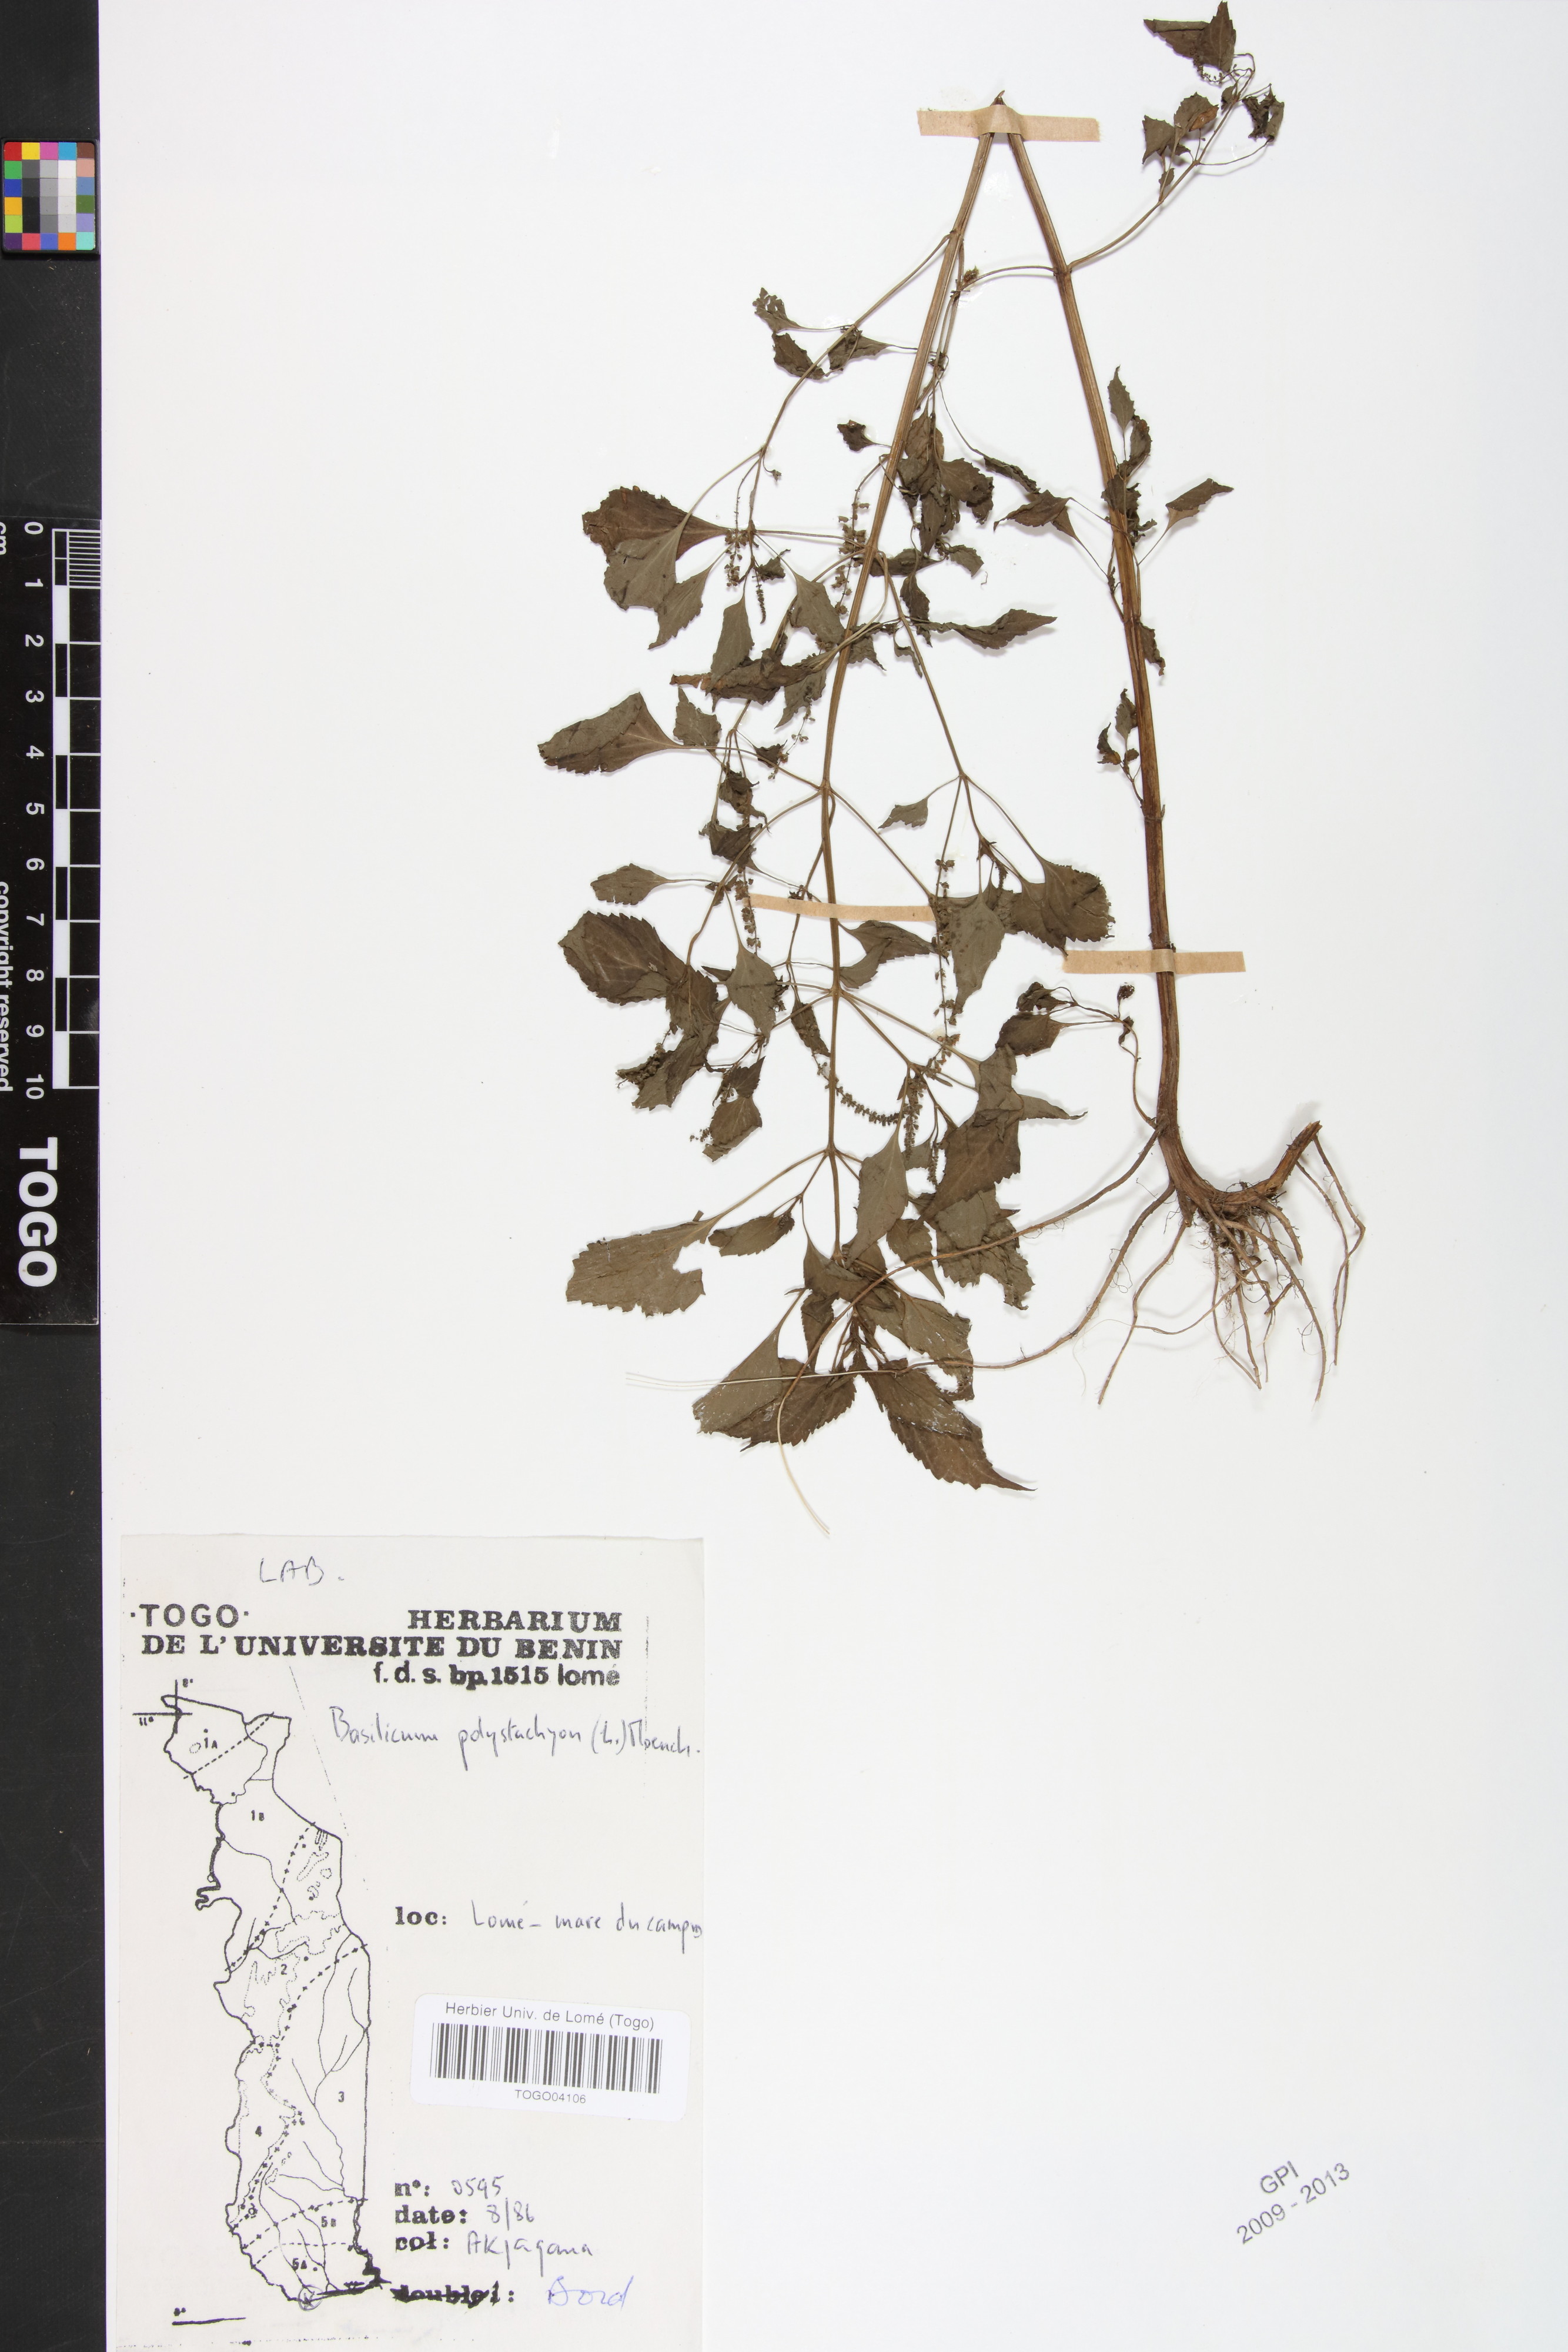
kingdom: Plantae
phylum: Tracheophyta
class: Magnoliopsida
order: Lamiales
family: Lamiaceae
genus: Basilicum
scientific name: Basilicum polystachyon
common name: Musk-basil
